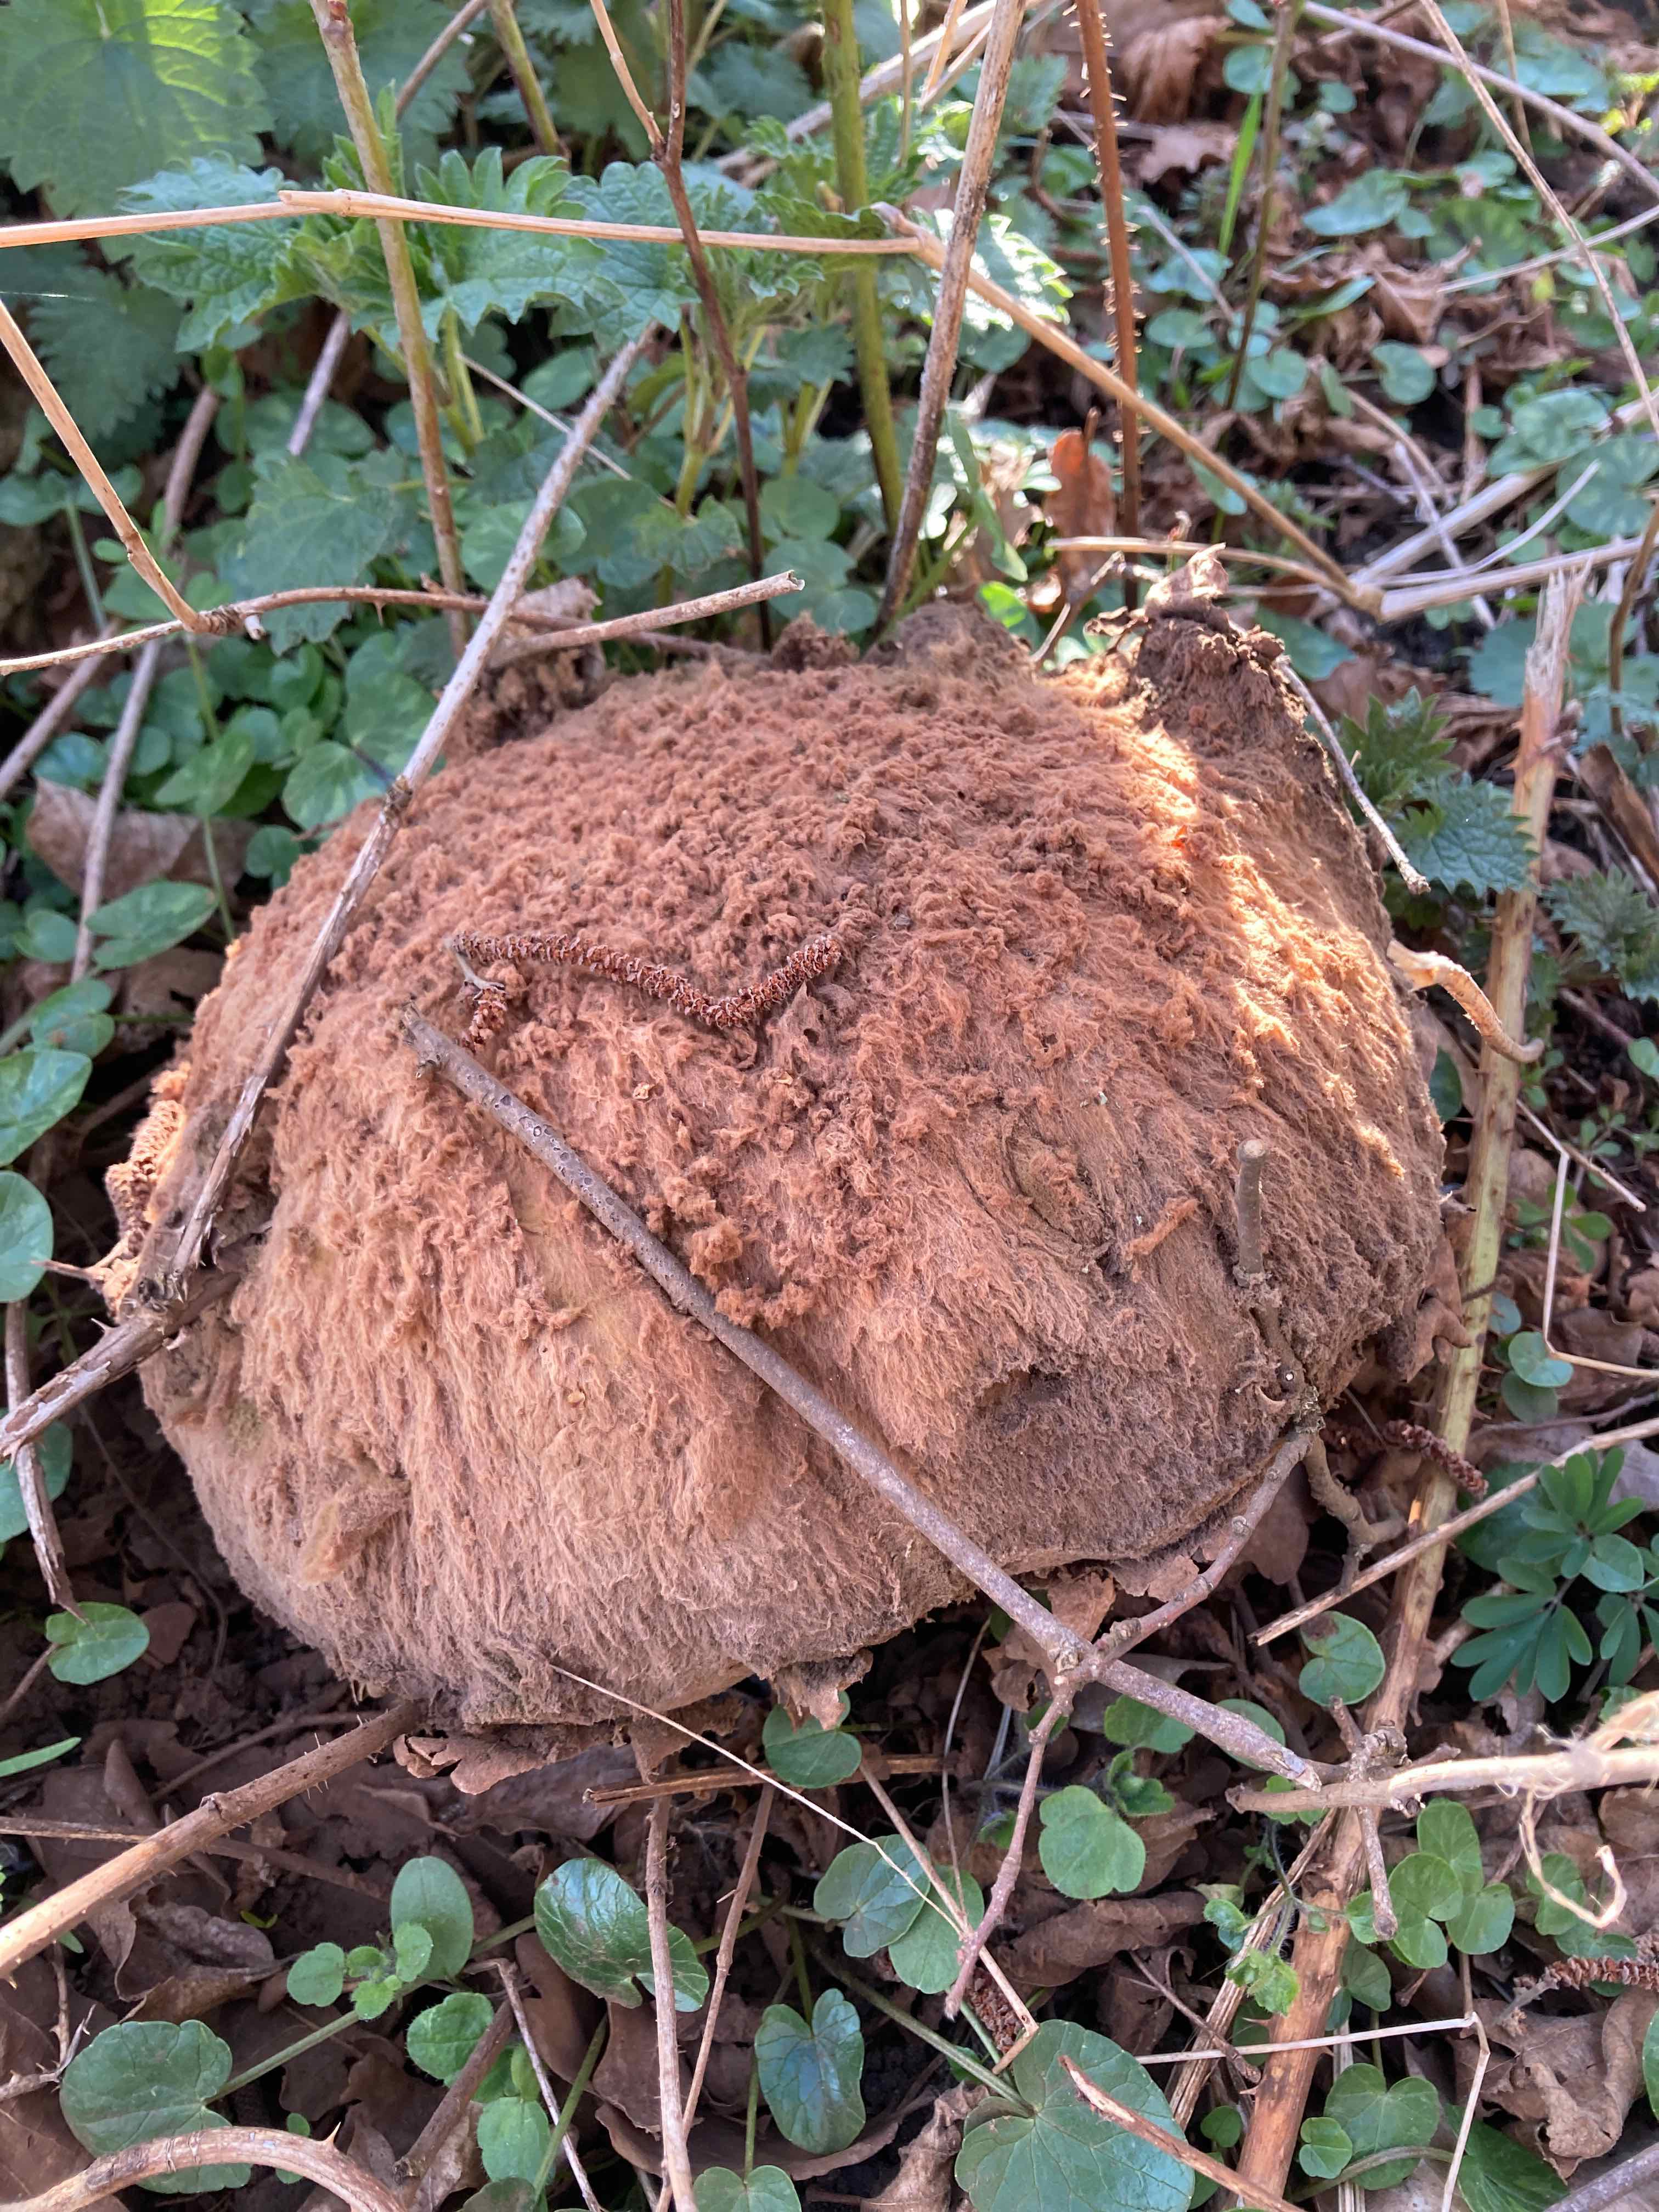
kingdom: Fungi
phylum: Basidiomycota
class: Agaricomycetes
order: Agaricales
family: Lycoperdaceae
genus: Calvatia
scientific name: Calvatia gigantea
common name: kæmpestøvbold
